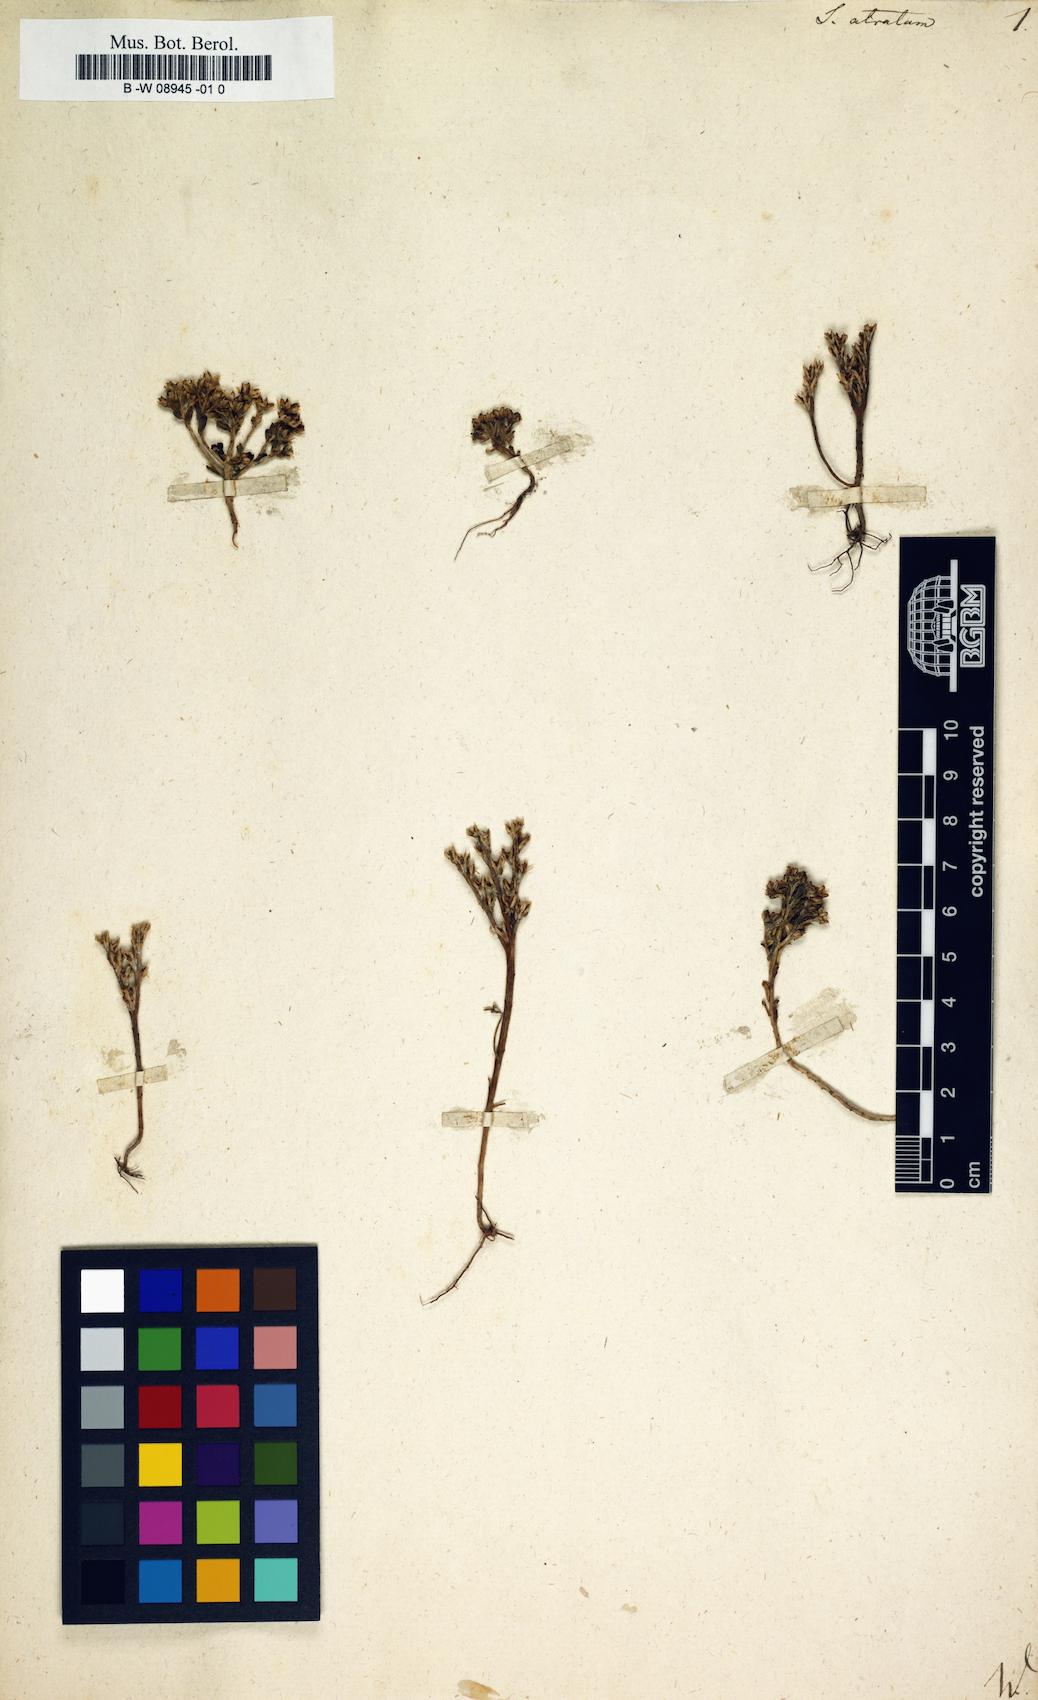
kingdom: Plantae
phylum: Tracheophyta
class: Magnoliopsida
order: Saxifragales
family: Crassulaceae
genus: Sedum
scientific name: Sedum atratum
